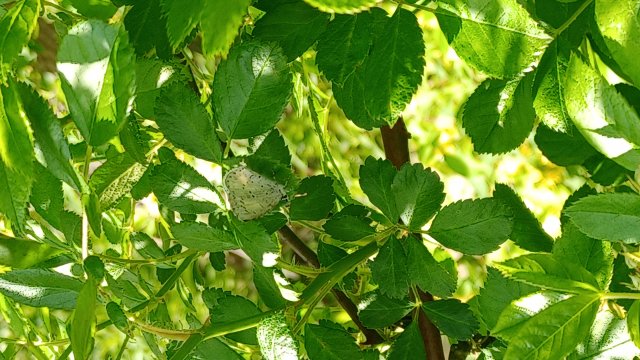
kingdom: Animalia
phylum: Arthropoda
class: Insecta
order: Lepidoptera
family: Lycaenidae
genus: Celastrina
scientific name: Celastrina
